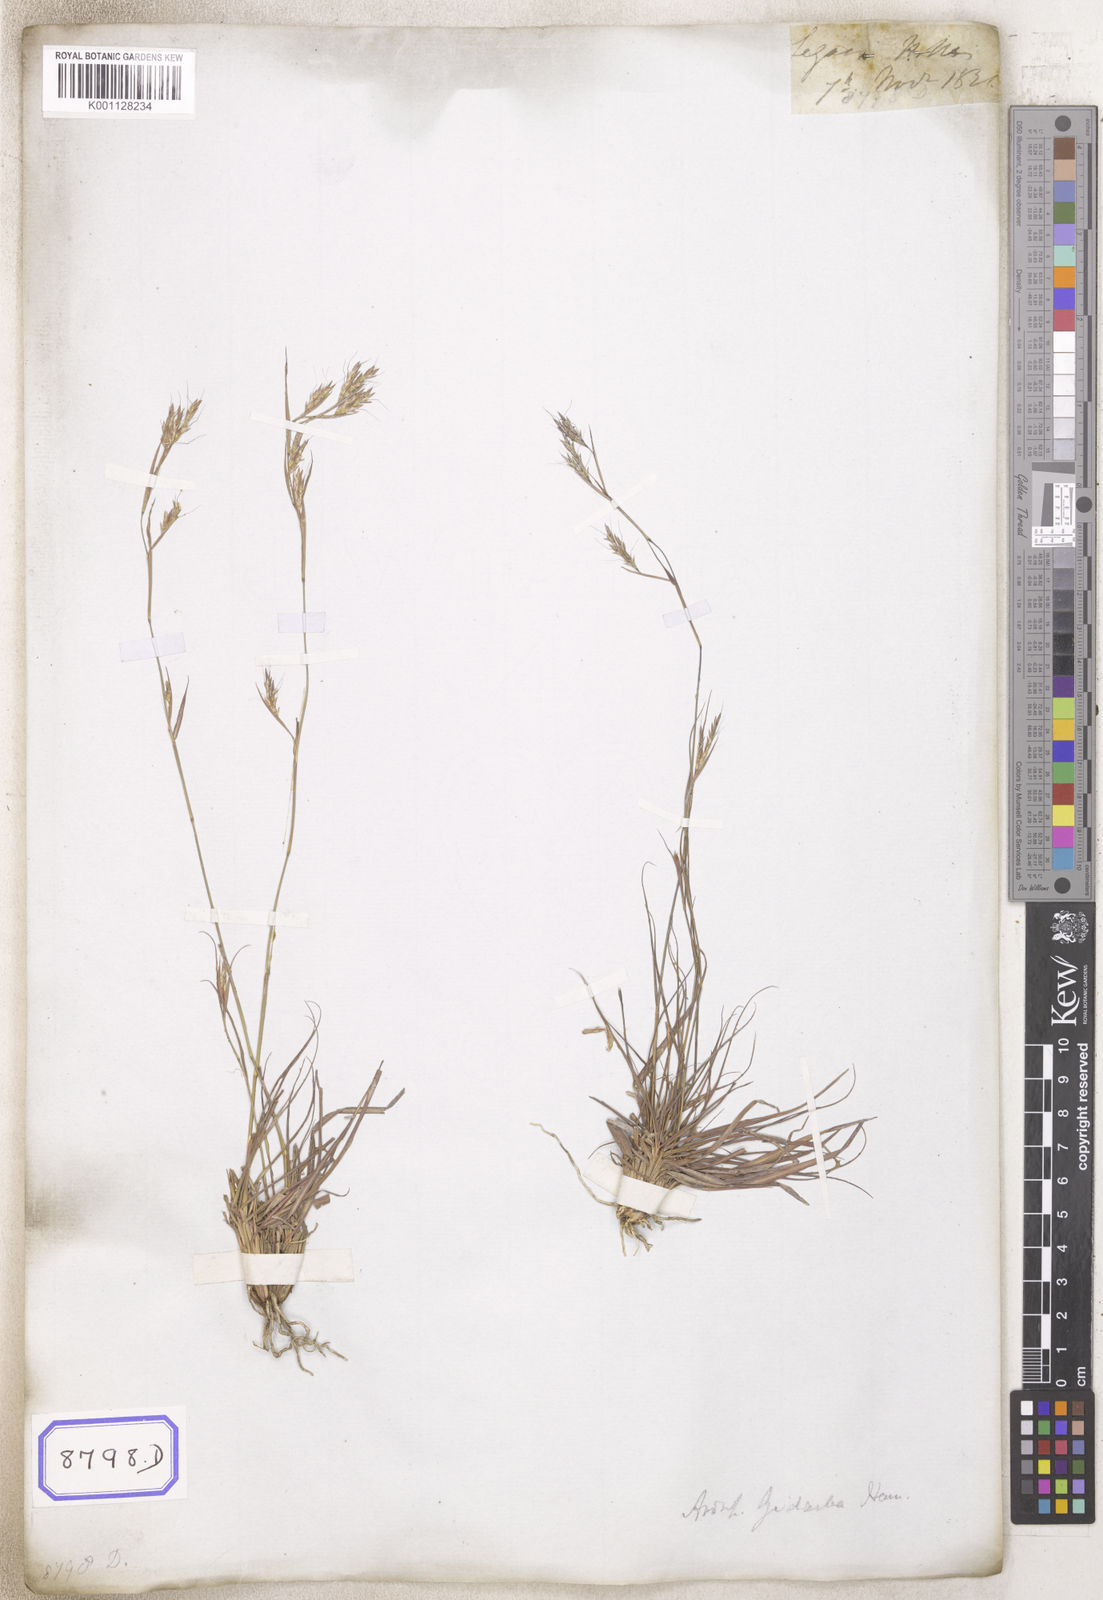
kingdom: Plantae
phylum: Tracheophyta
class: Liliopsida
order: Poales
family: Poaceae
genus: Andropogon
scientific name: Andropogon
